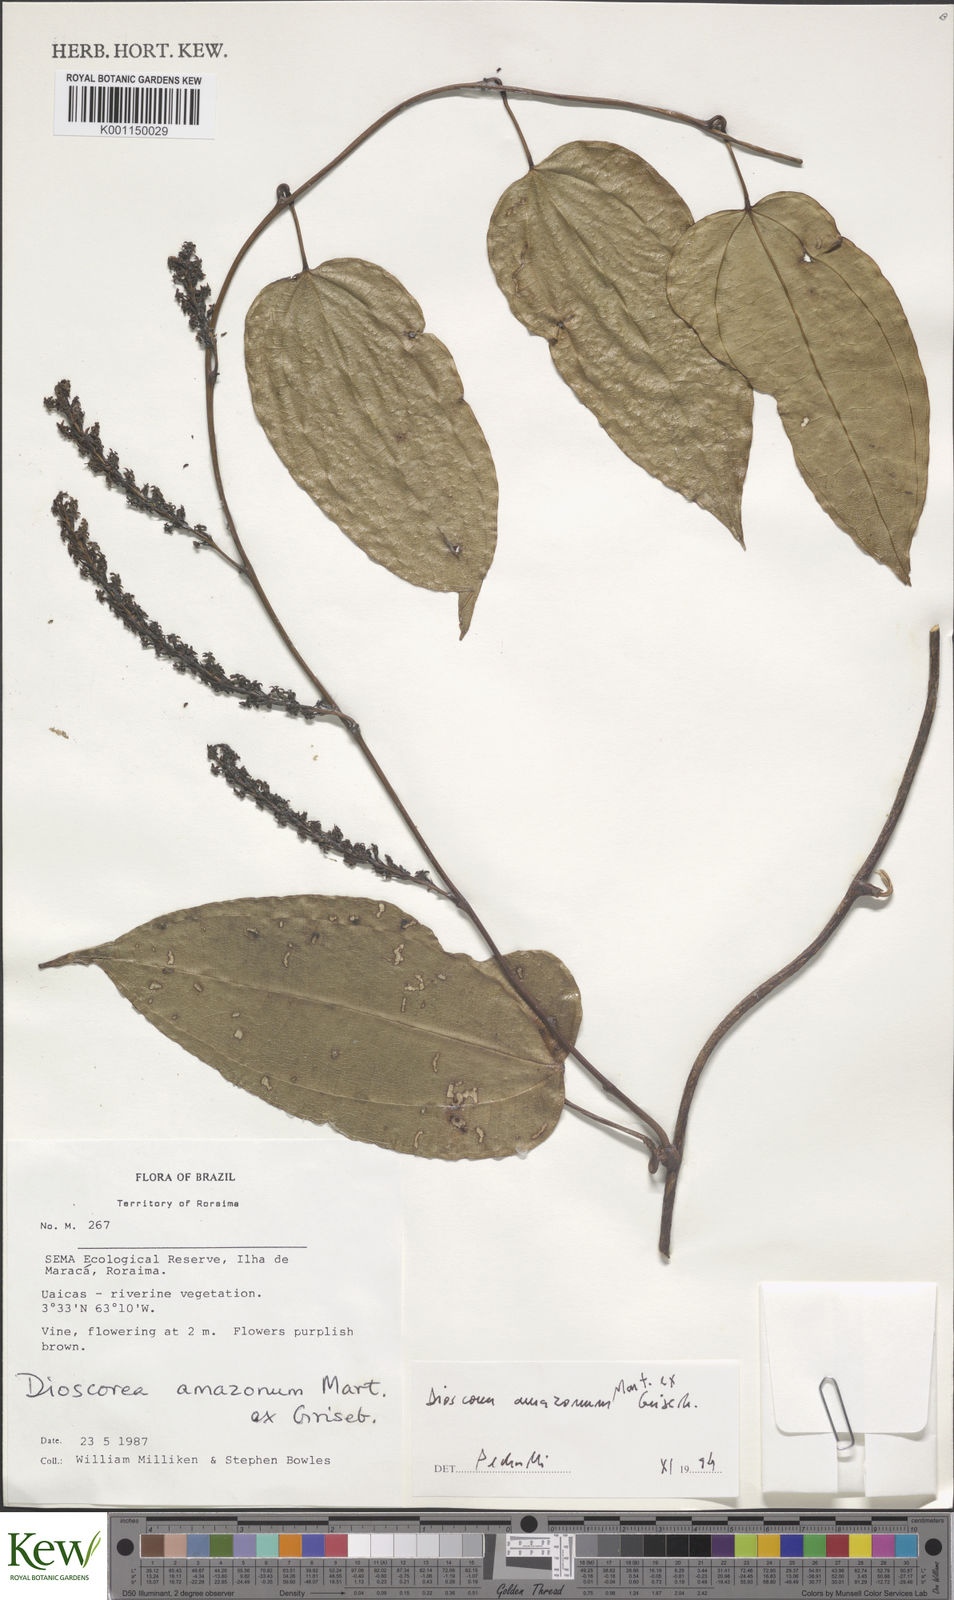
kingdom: Plantae
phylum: Tracheophyta
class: Liliopsida
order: Dioscoreales
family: Dioscoreaceae
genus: Dioscorea
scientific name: Dioscorea amazonum
